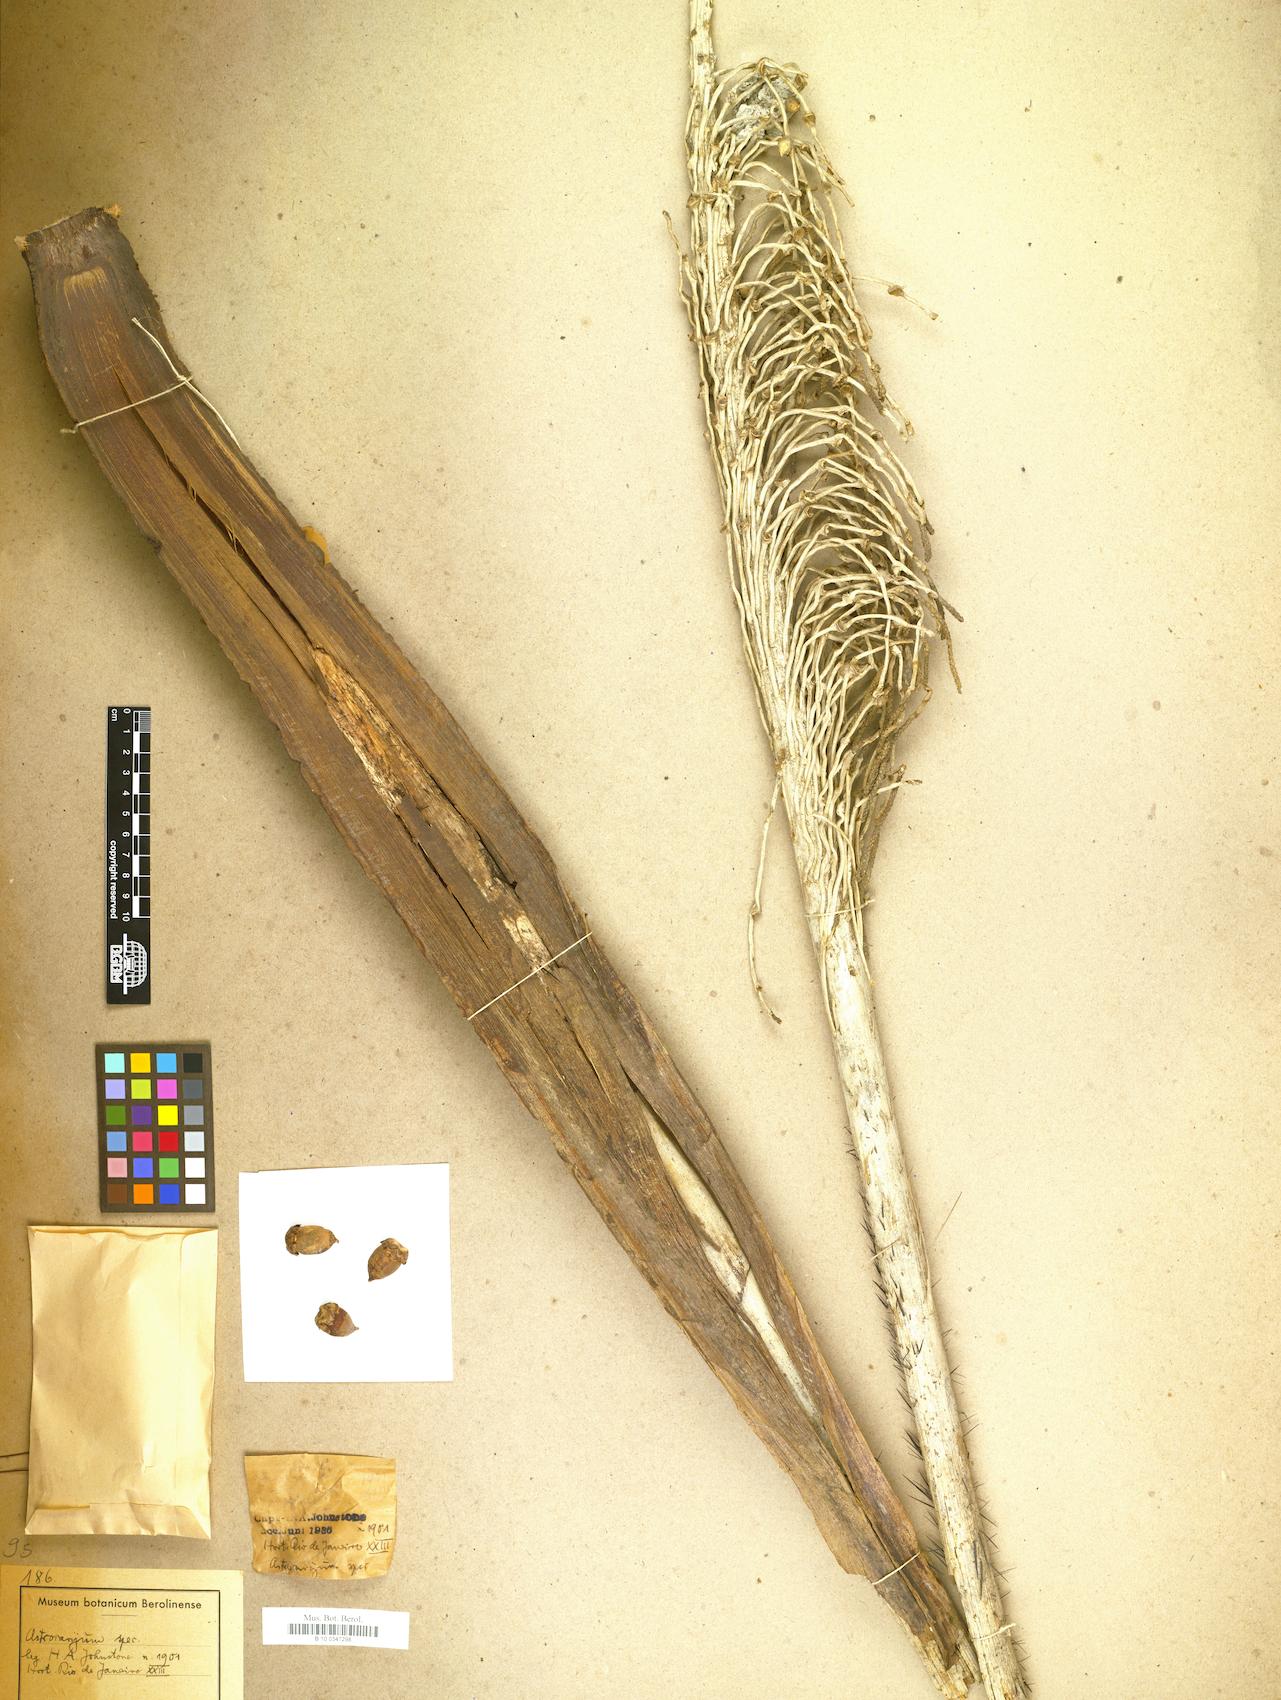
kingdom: Plantae
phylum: Tracheophyta
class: Liliopsida
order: Arecales
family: Arecaceae
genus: Astrocaryum
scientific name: Astrocaryum
